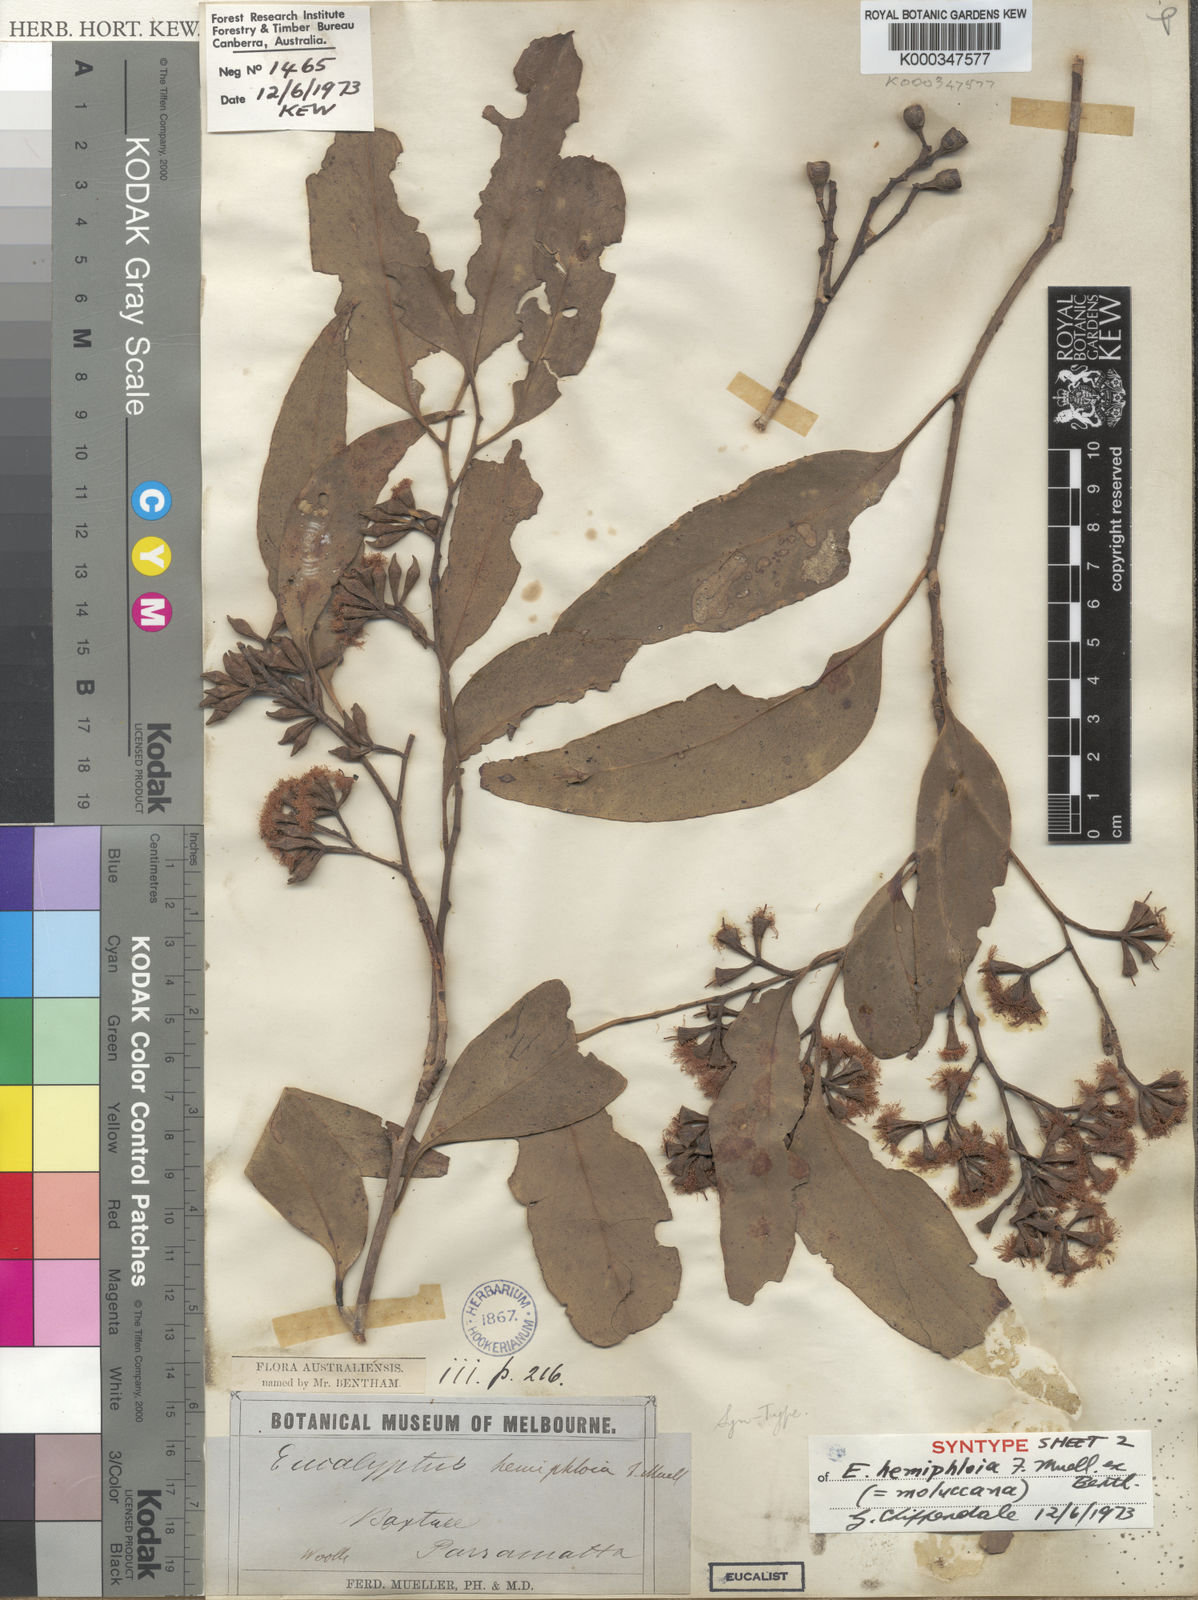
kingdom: Plantae
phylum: Tracheophyta
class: Magnoliopsida
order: Myrtales
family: Myrtaceae
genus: Eucalyptus
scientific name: Eucalyptus moluccana
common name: Grey-box
